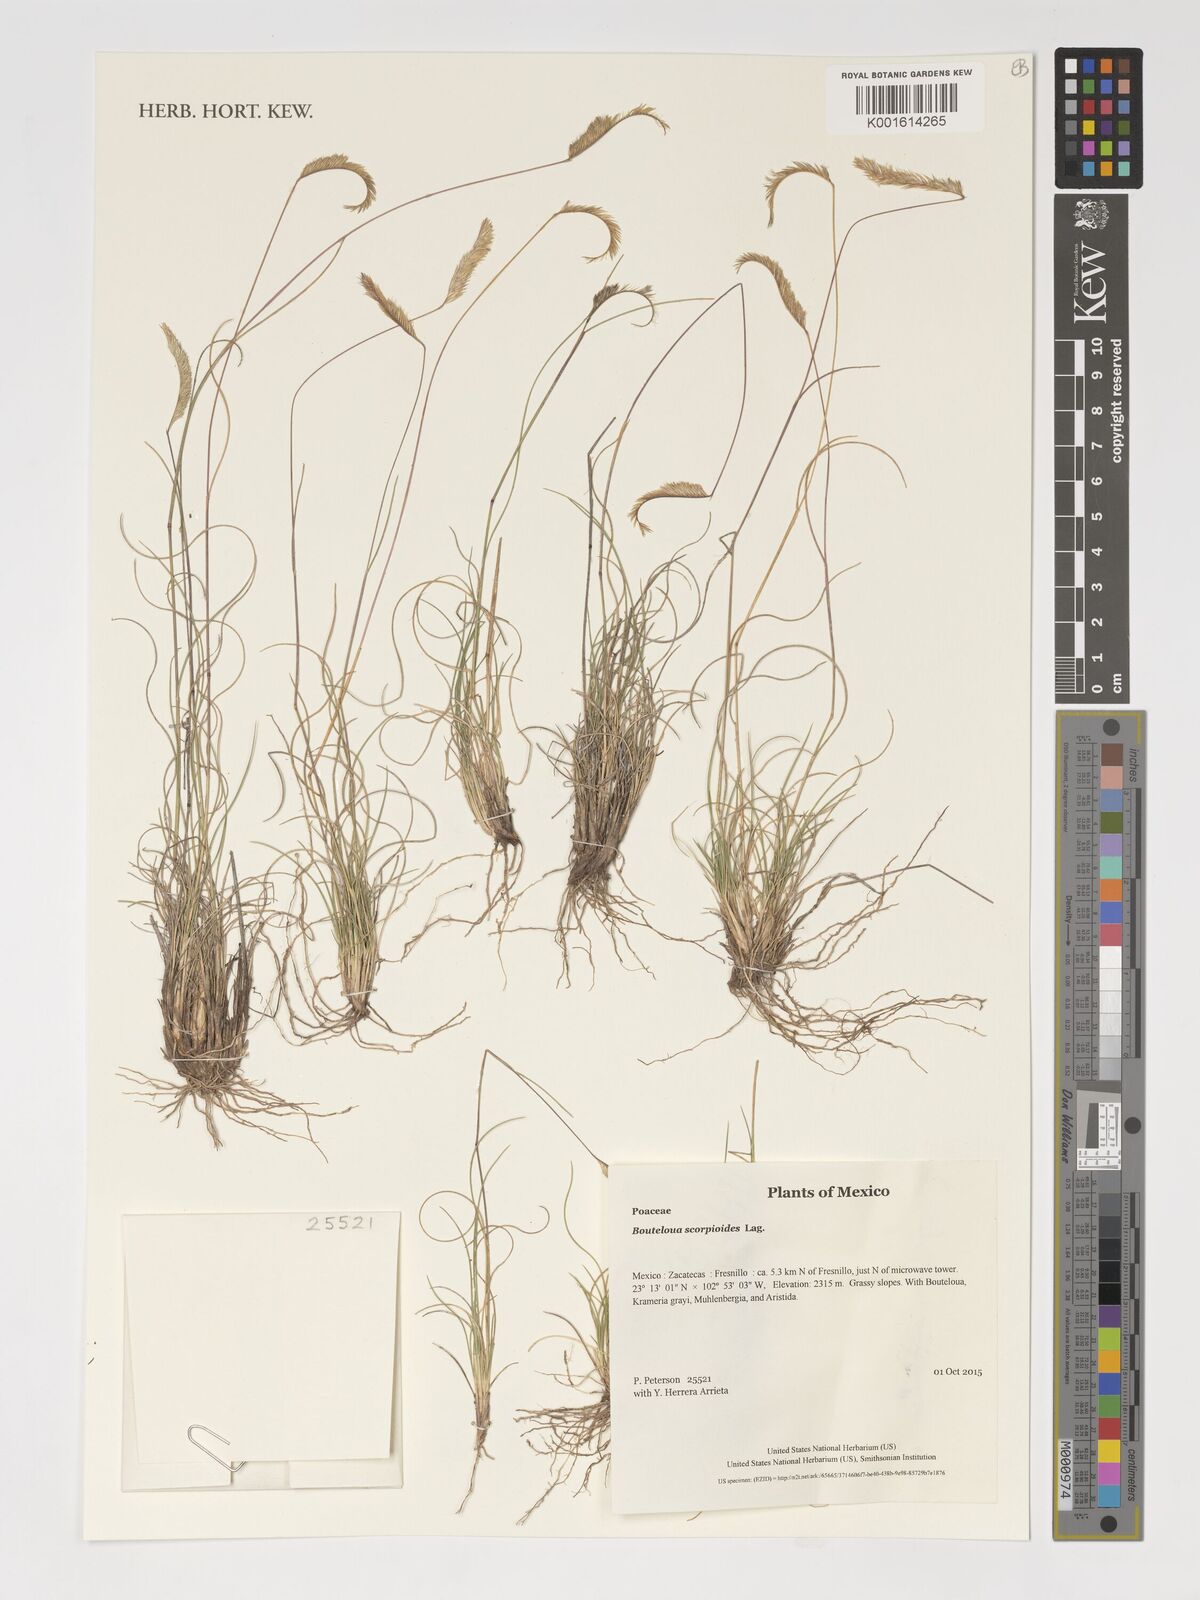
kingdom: Plantae
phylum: Tracheophyta
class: Liliopsida
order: Poales
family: Poaceae
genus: Bouteloua
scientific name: Bouteloua scorpioides
